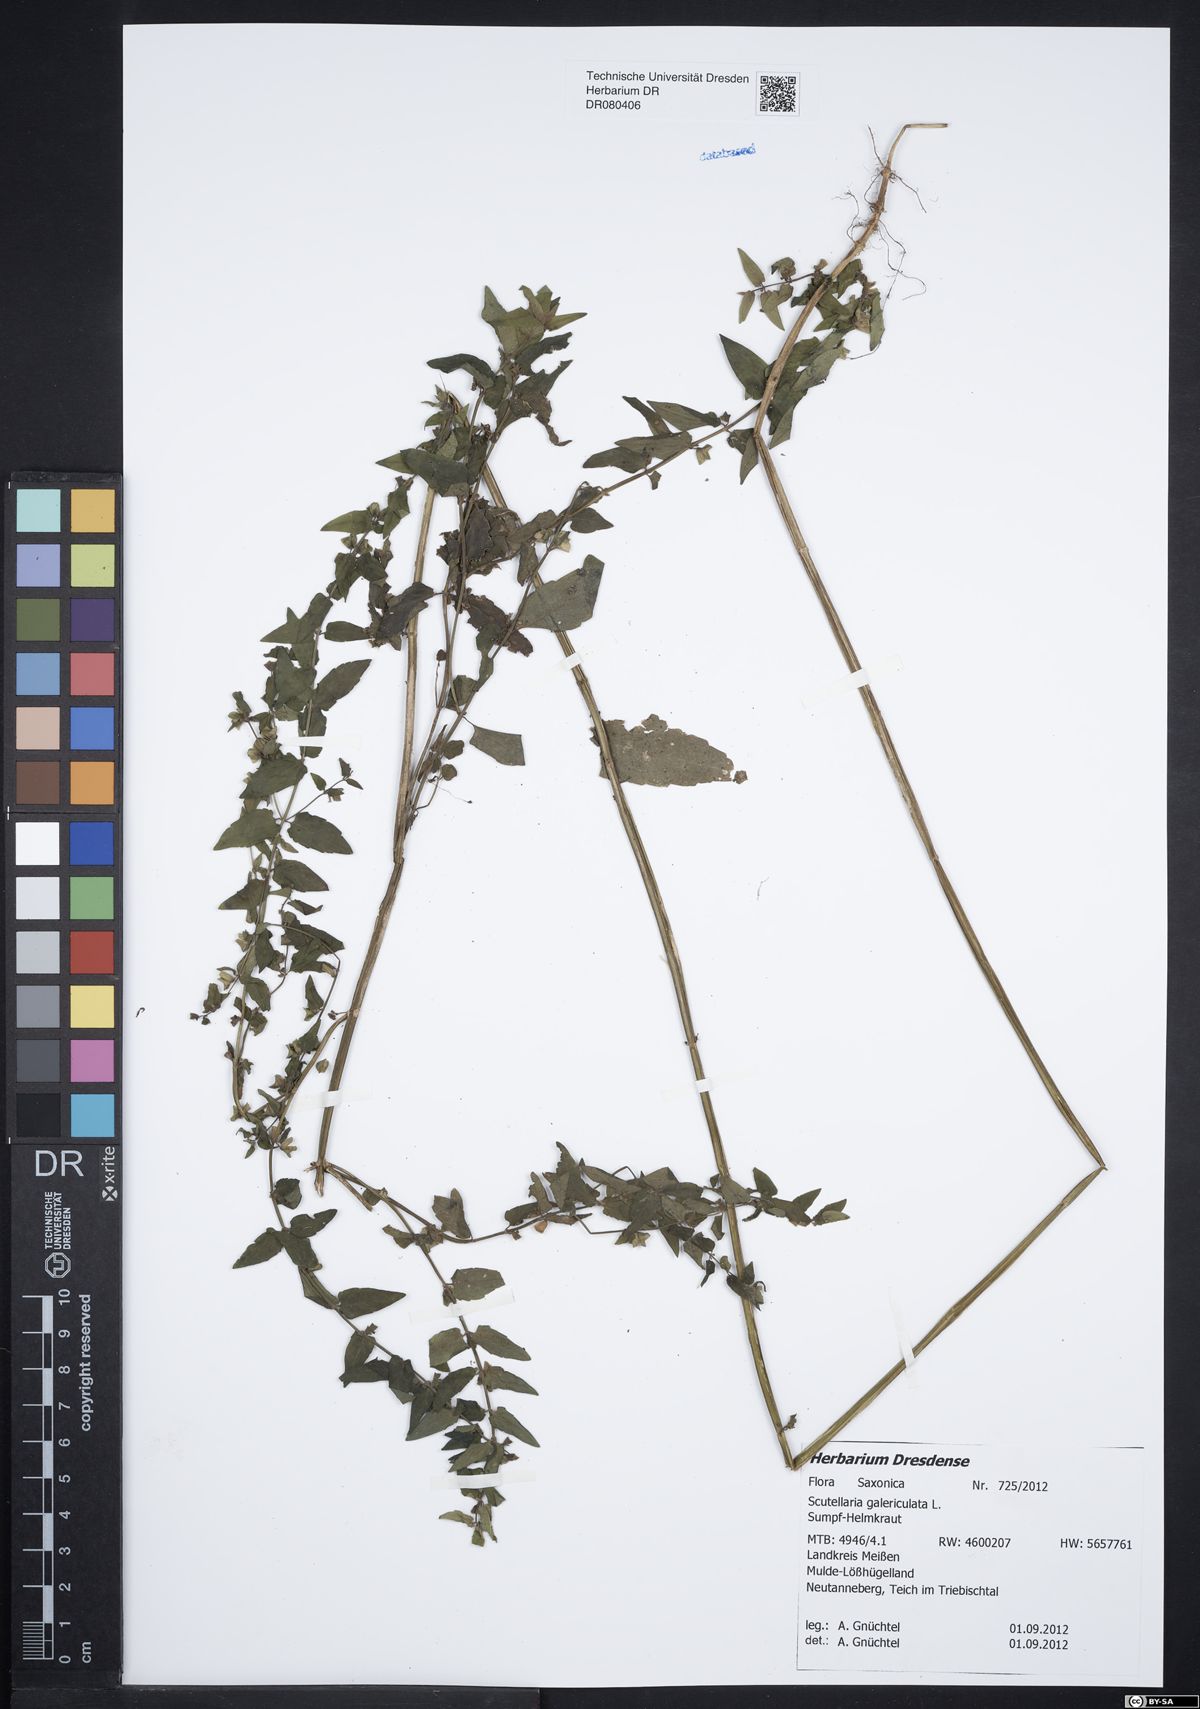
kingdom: Plantae
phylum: Tracheophyta
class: Magnoliopsida
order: Lamiales
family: Lamiaceae
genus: Scutellaria
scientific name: Scutellaria galericulata
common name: Skullcap
